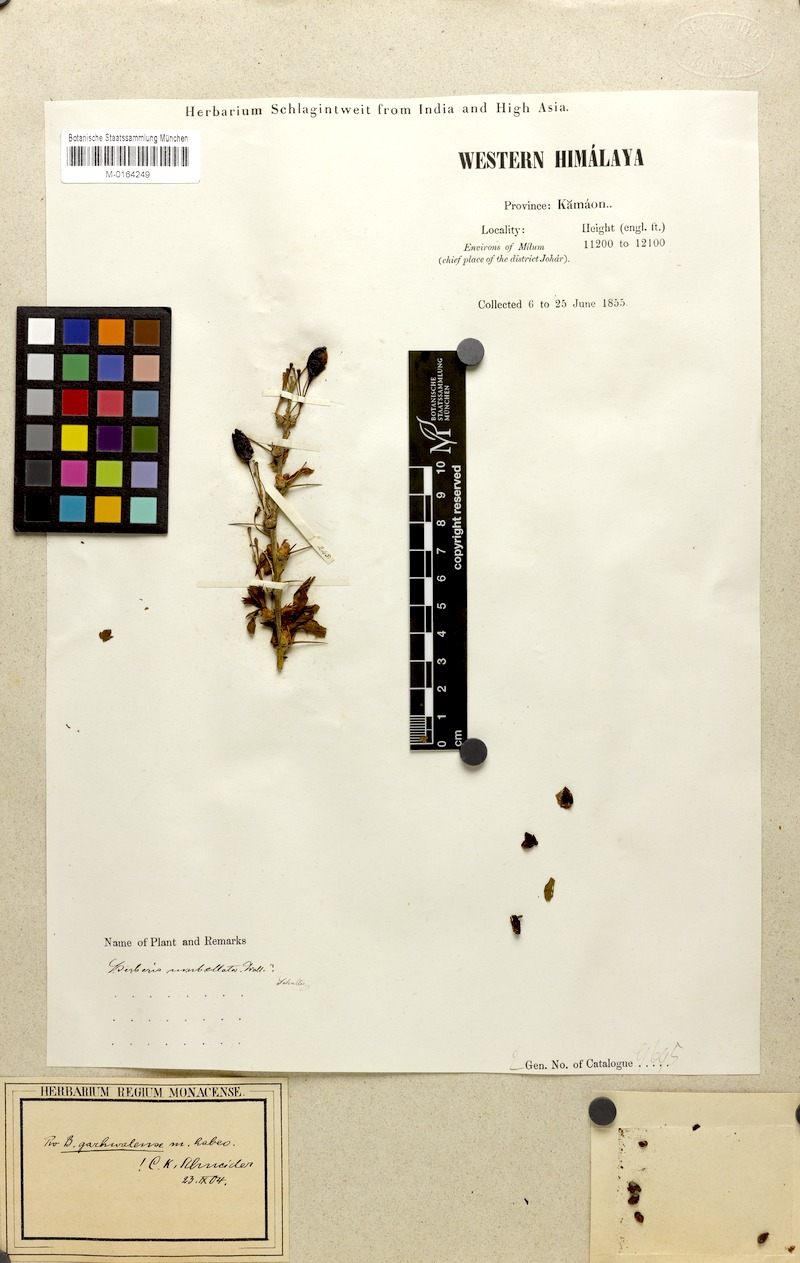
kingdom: Plantae
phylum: Tracheophyta
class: Magnoliopsida
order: Ranunculales
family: Berberidaceae
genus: Berberis
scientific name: Berberis garhwalensis
